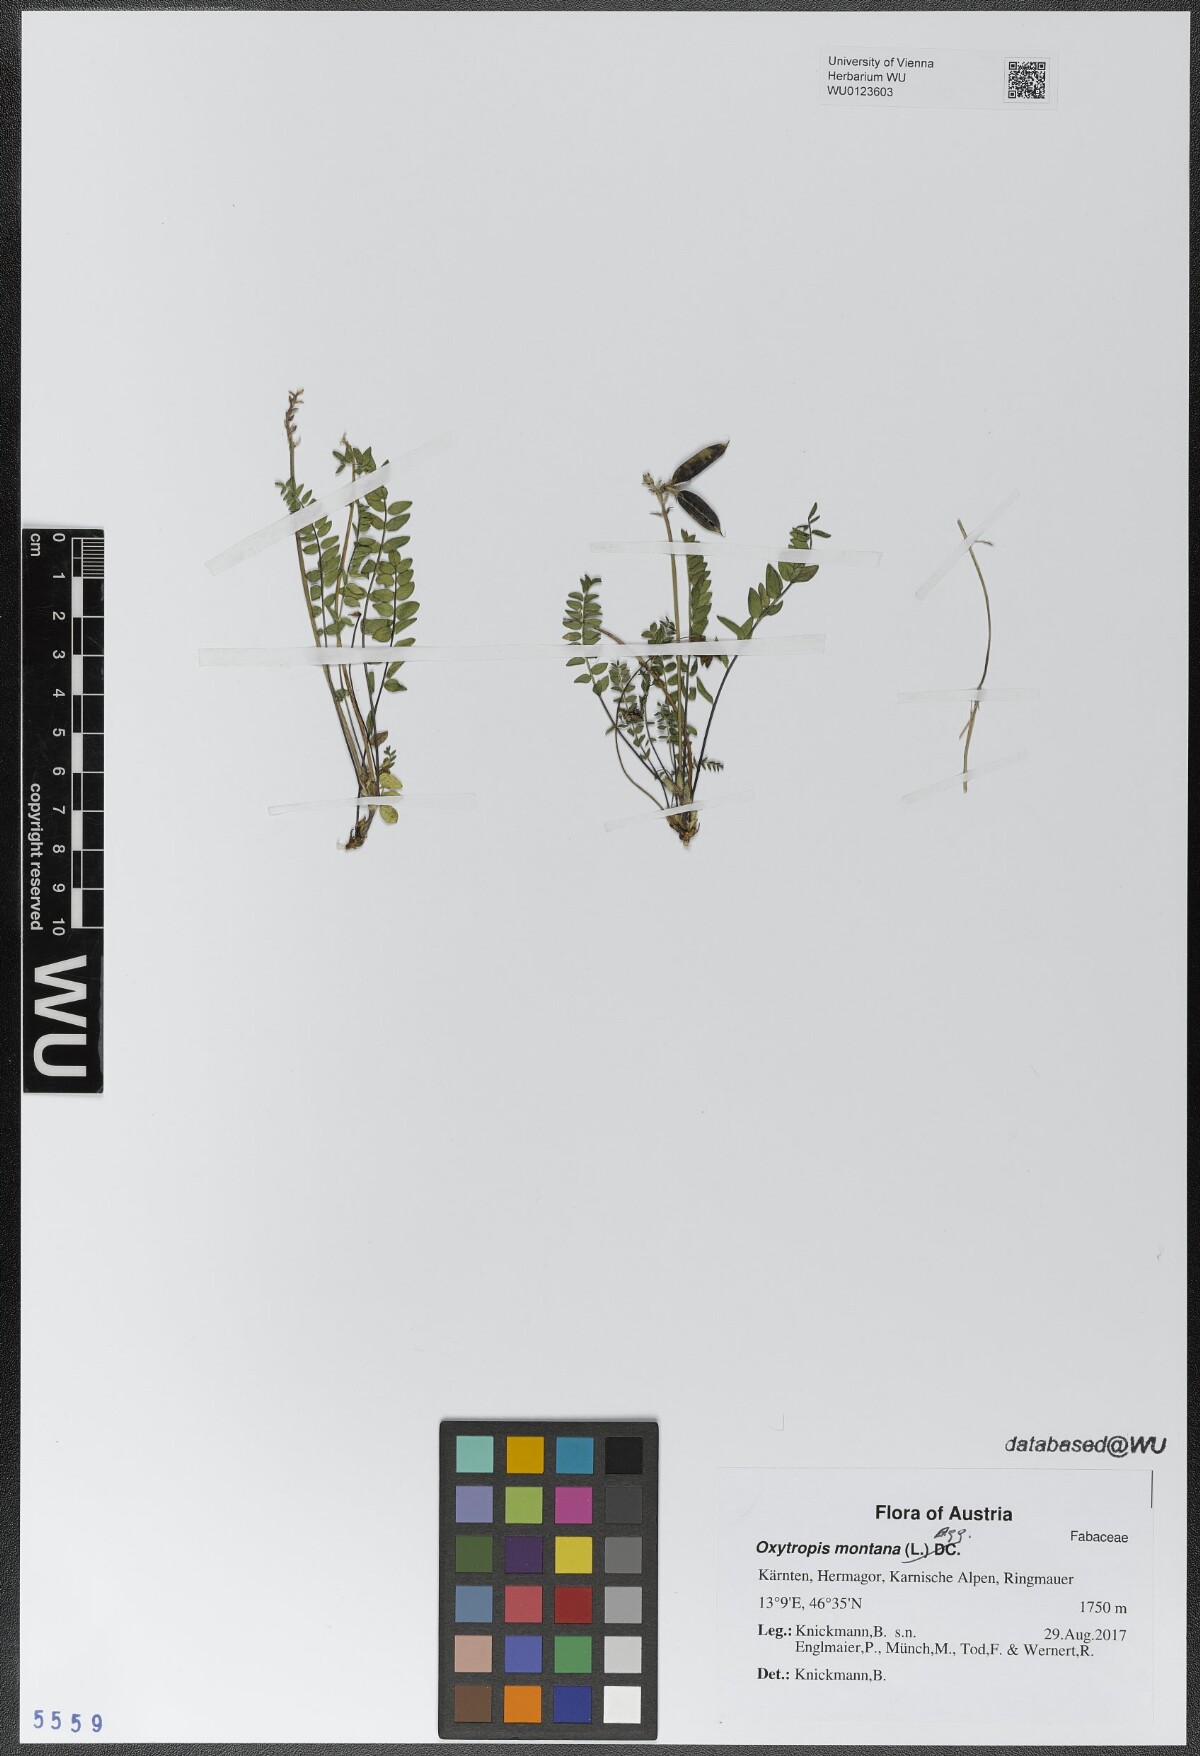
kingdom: Plantae
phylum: Tracheophyta
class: Magnoliopsida
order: Fabales
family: Fabaceae
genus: Oxytropis
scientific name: Oxytropis montana
